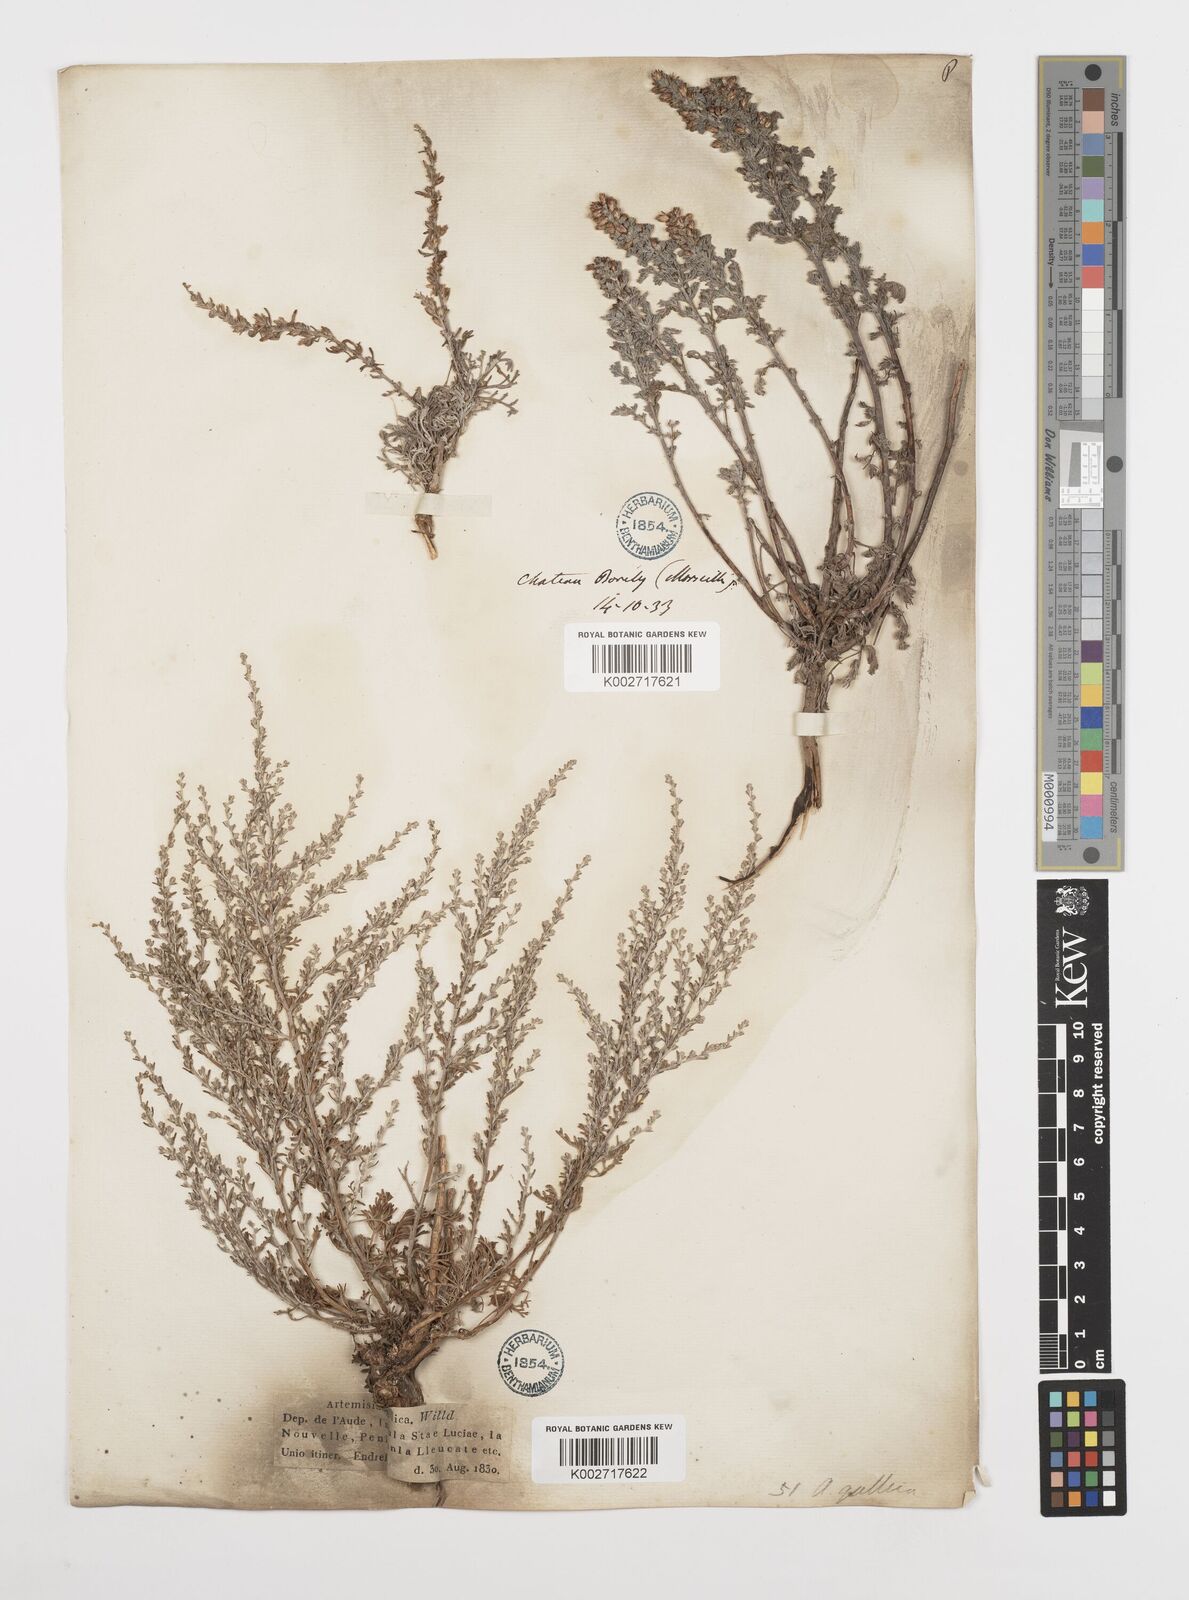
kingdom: Plantae
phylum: Tracheophyta
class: Magnoliopsida
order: Asterales
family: Asteraceae
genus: Artemisia
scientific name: Artemisia campestris
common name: Field wormwood
